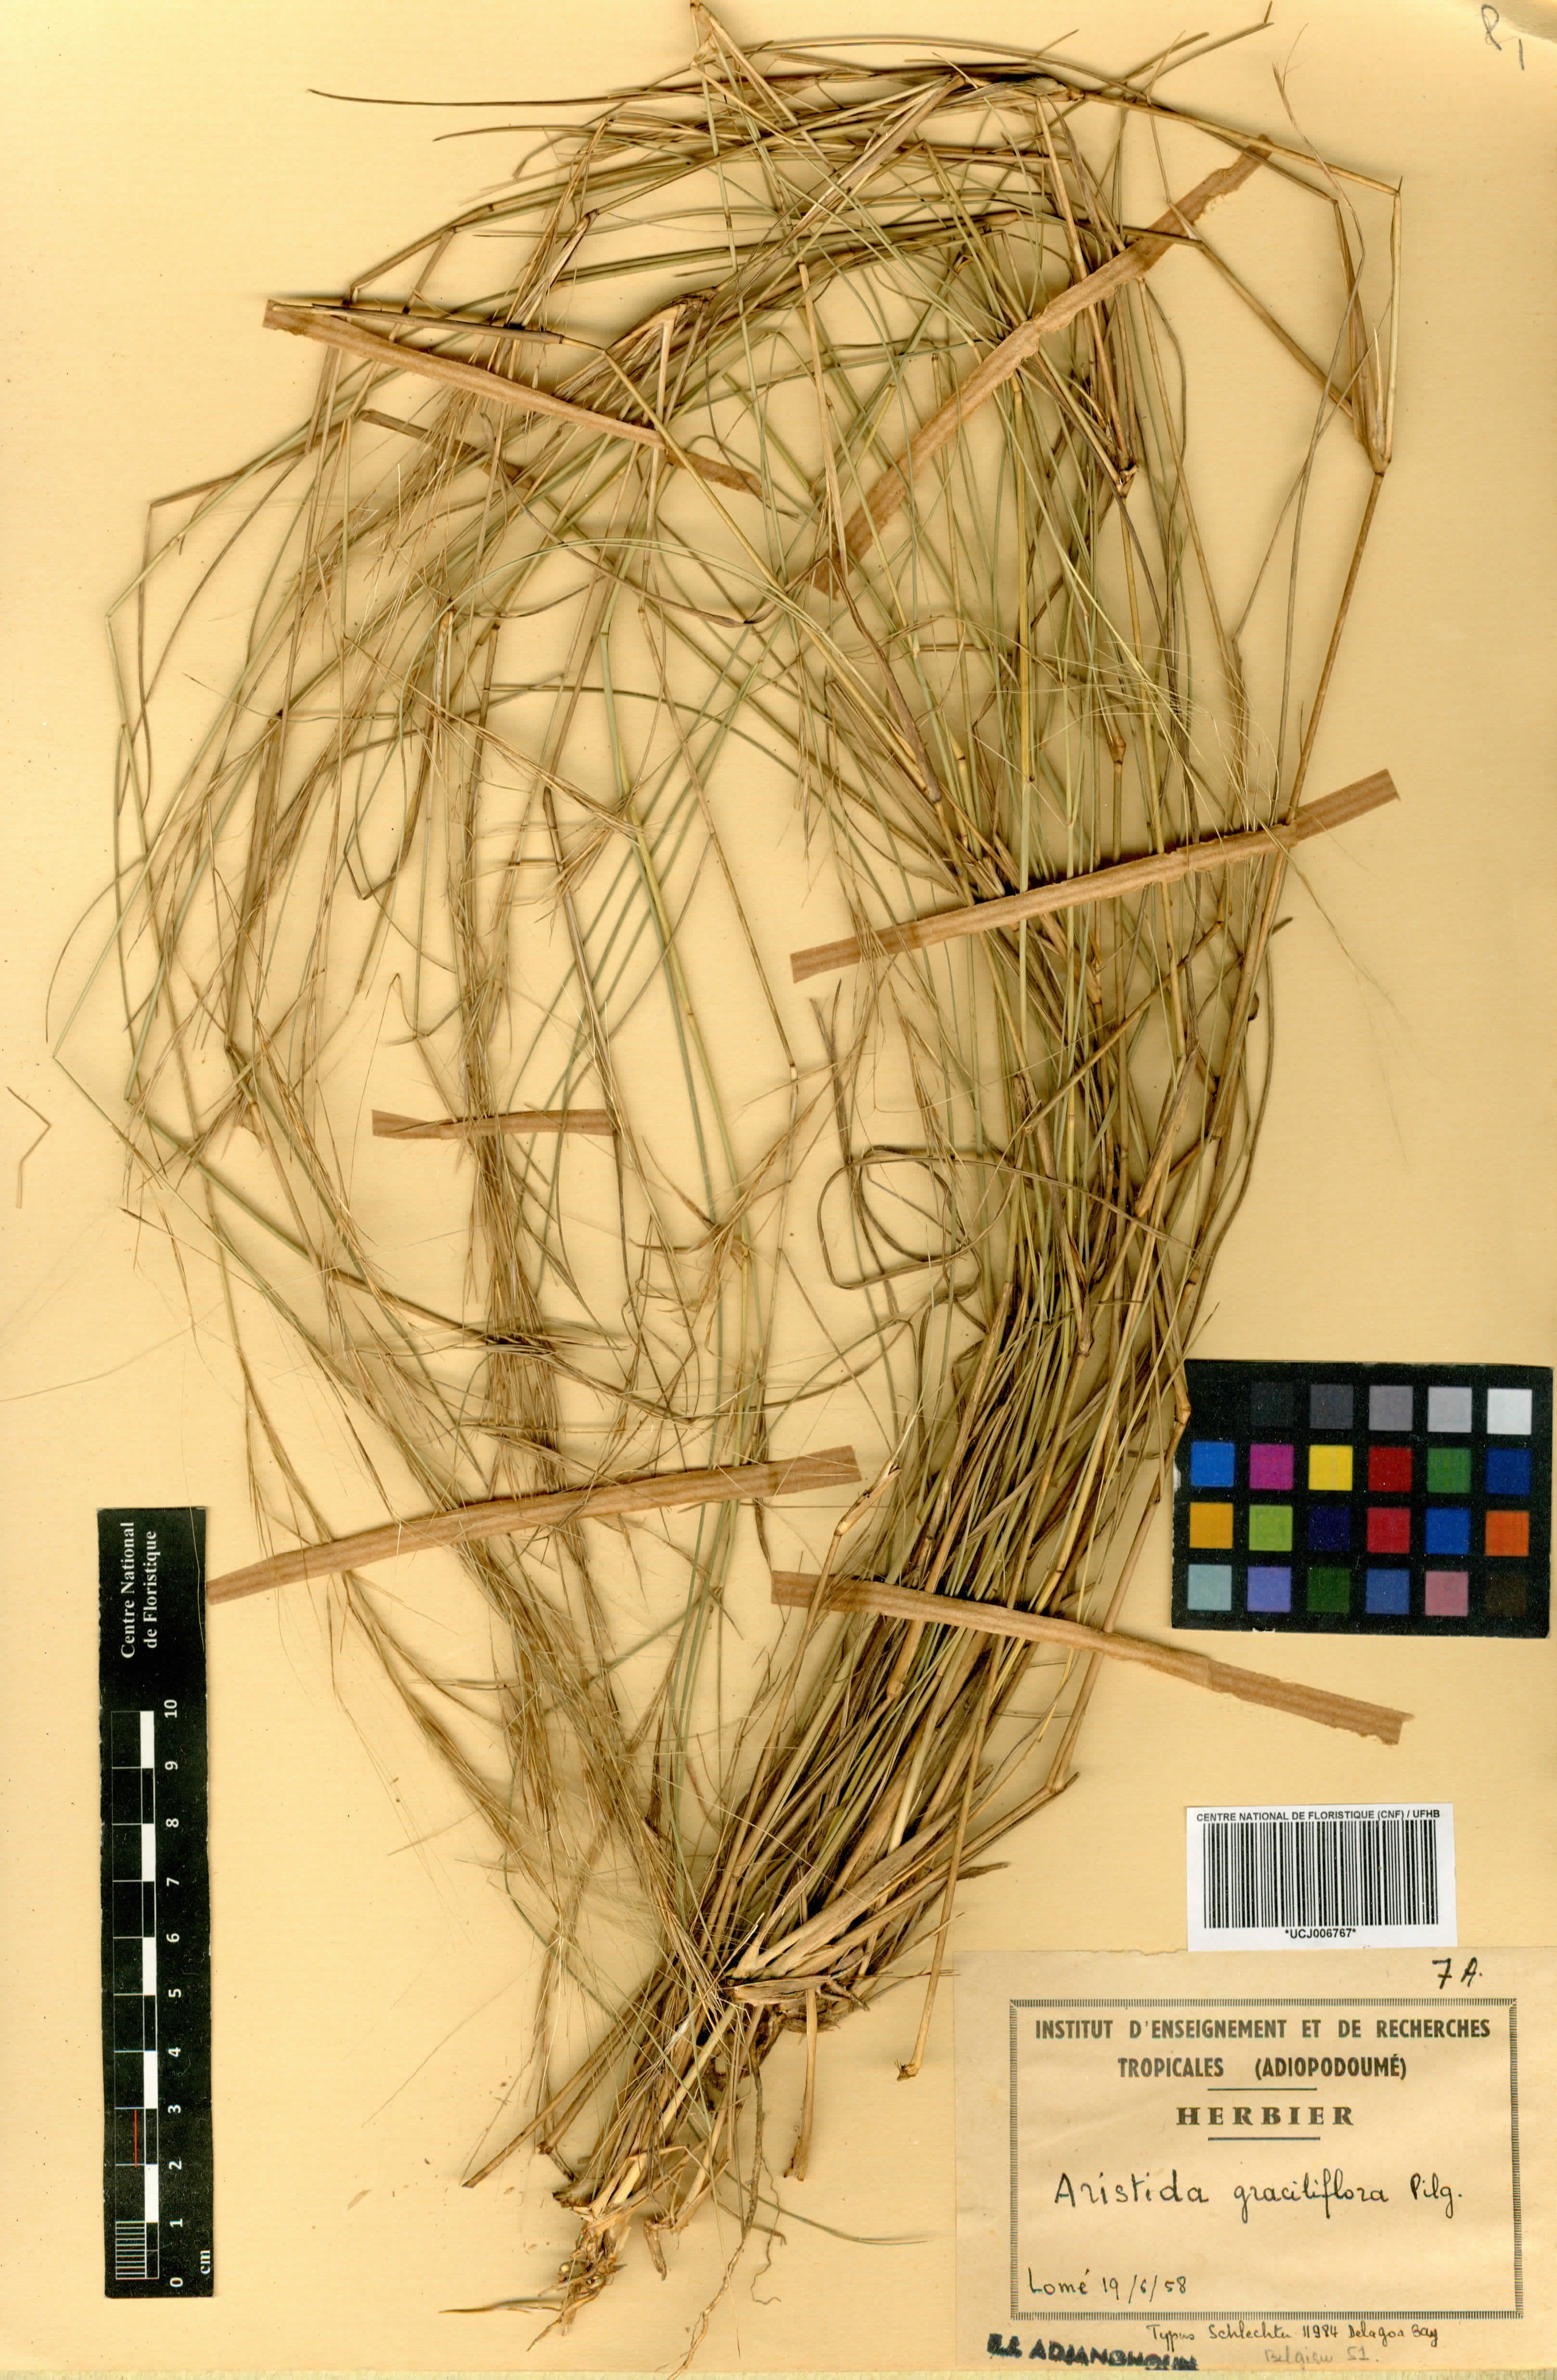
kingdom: Plantae
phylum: Tracheophyta
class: Liliopsida
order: Poales
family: Poaceae
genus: Aristida
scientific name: Aristida stipitata
